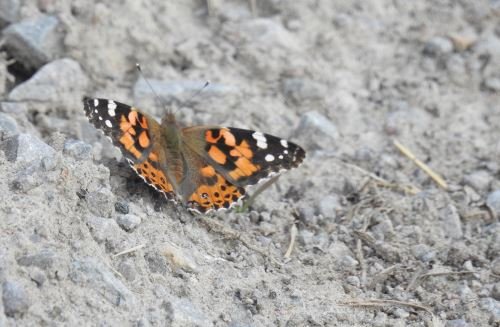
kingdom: Animalia
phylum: Arthropoda
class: Insecta
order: Lepidoptera
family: Nymphalidae
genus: Vanessa
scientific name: Vanessa cardui
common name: Painted Lady
